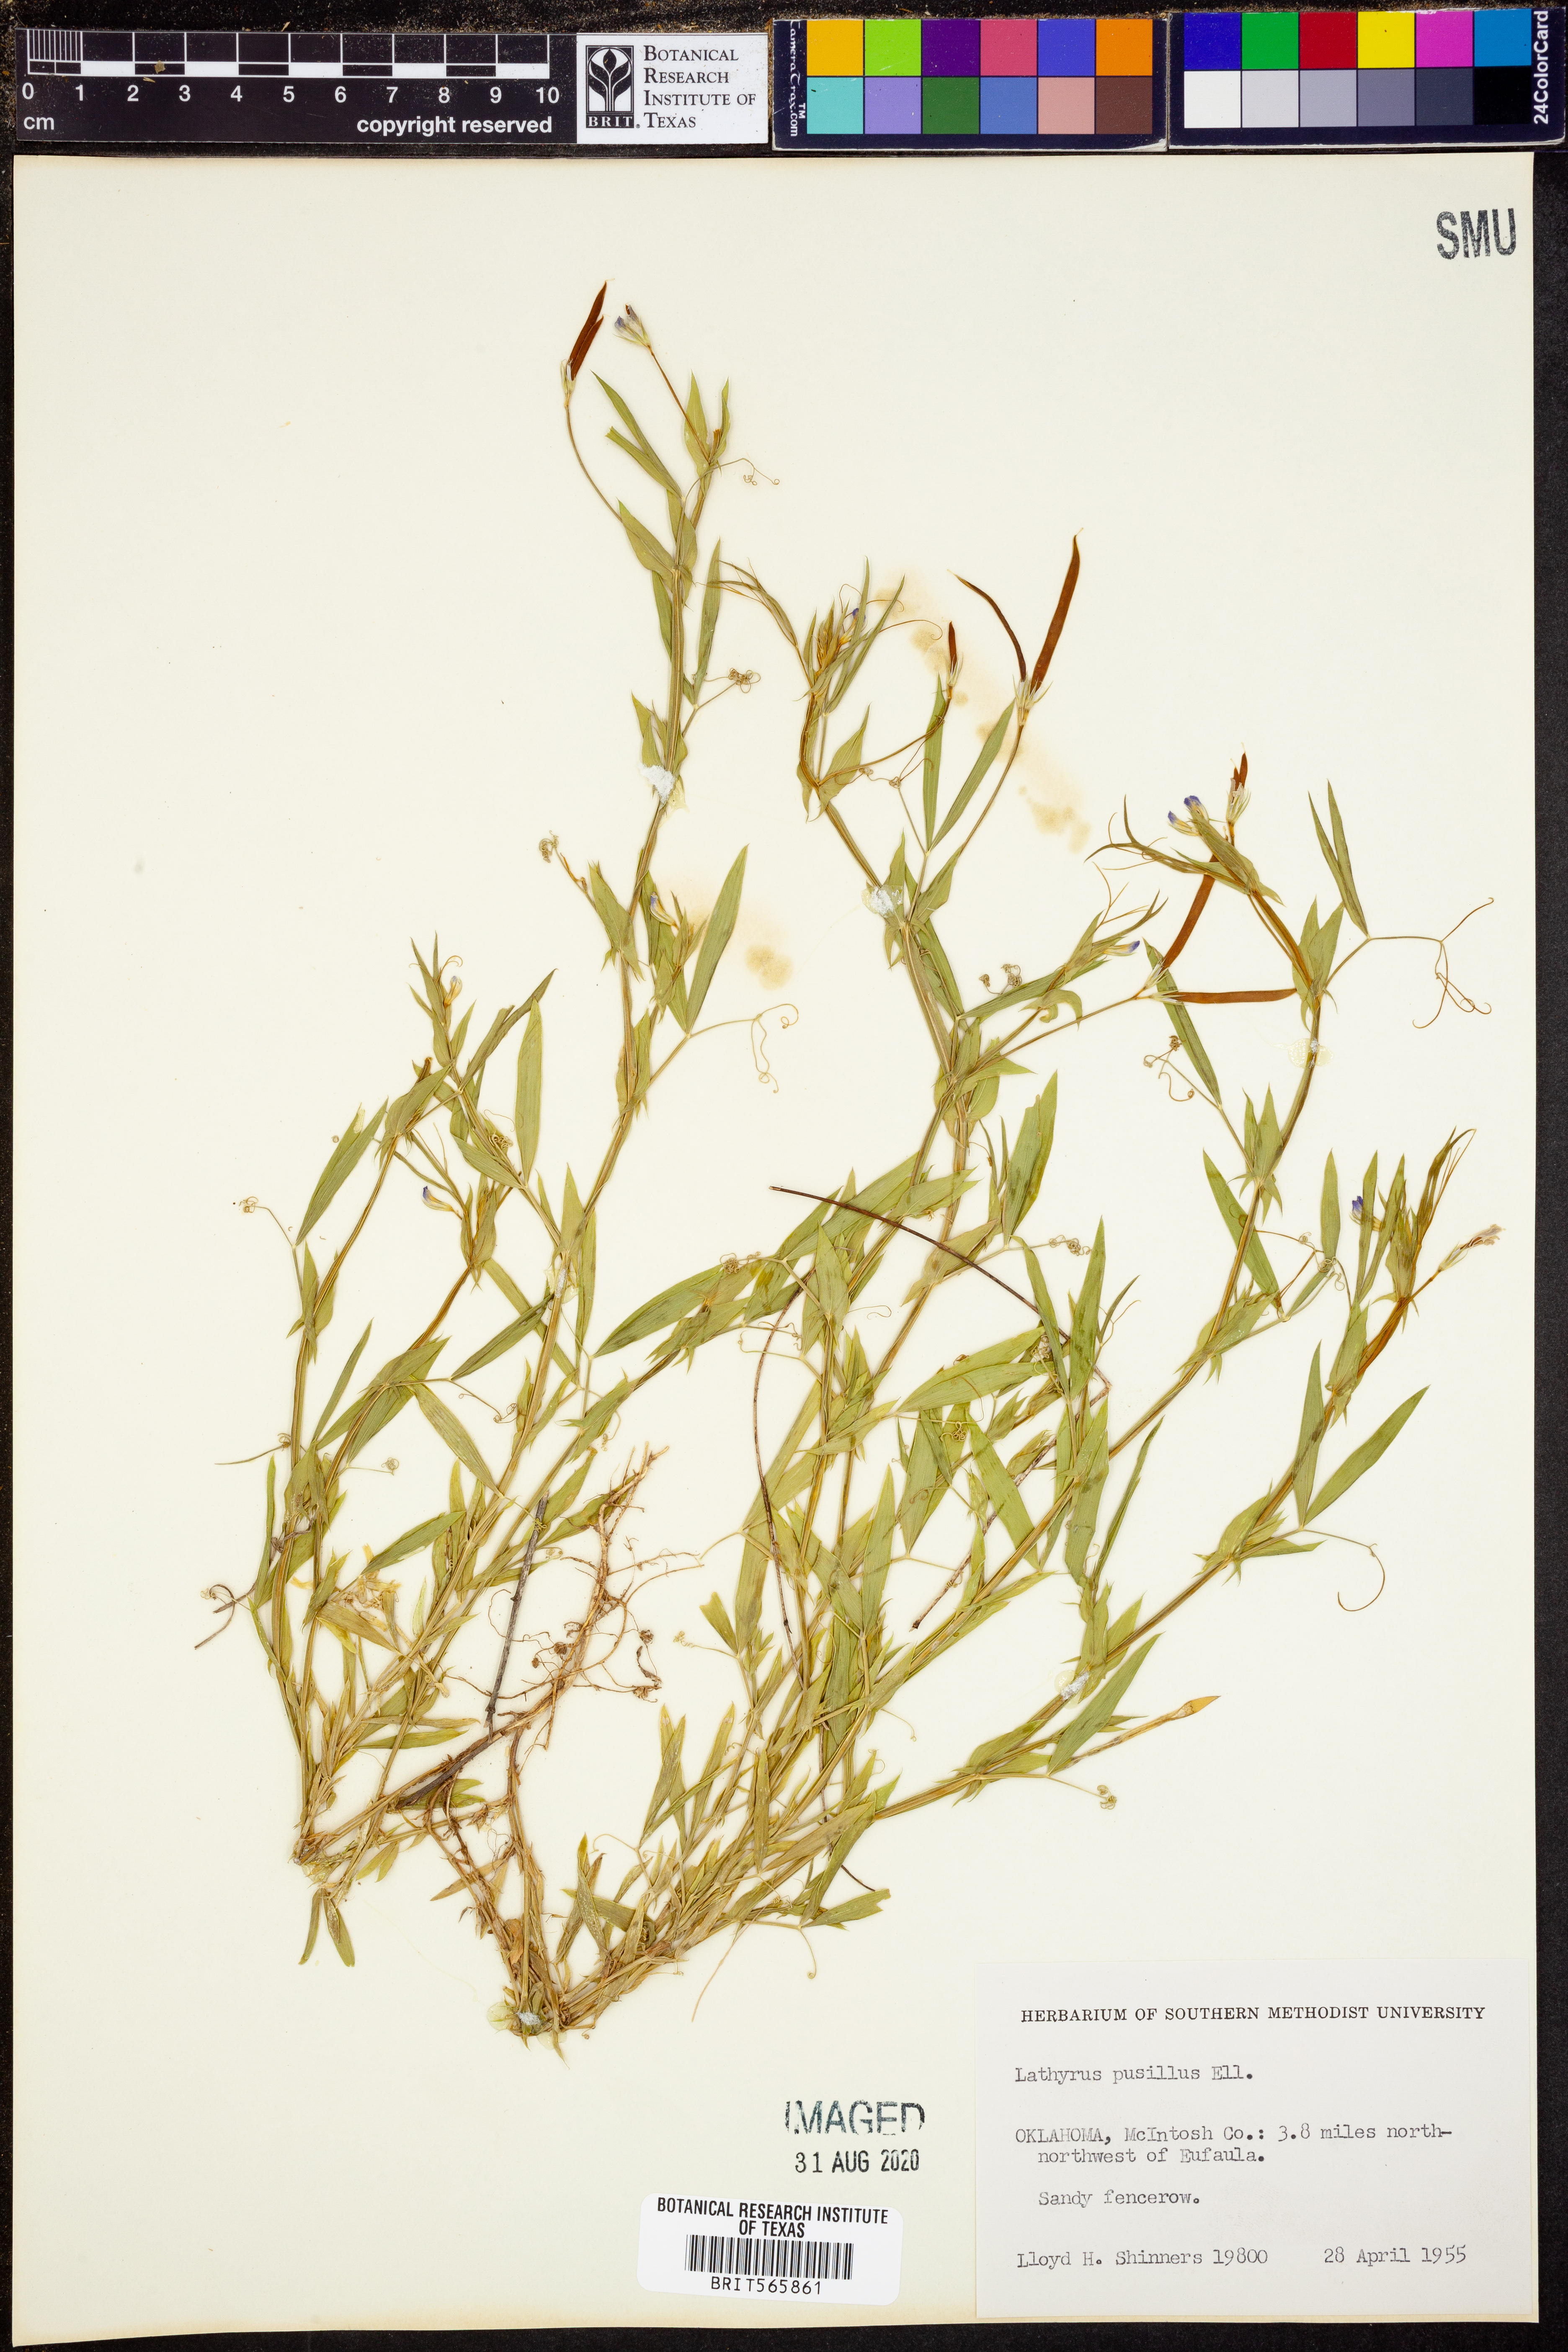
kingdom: Plantae
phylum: Tracheophyta
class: Magnoliopsida
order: Fabales
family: Fabaceae
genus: Lathyrus
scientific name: Lathyrus pusillus
